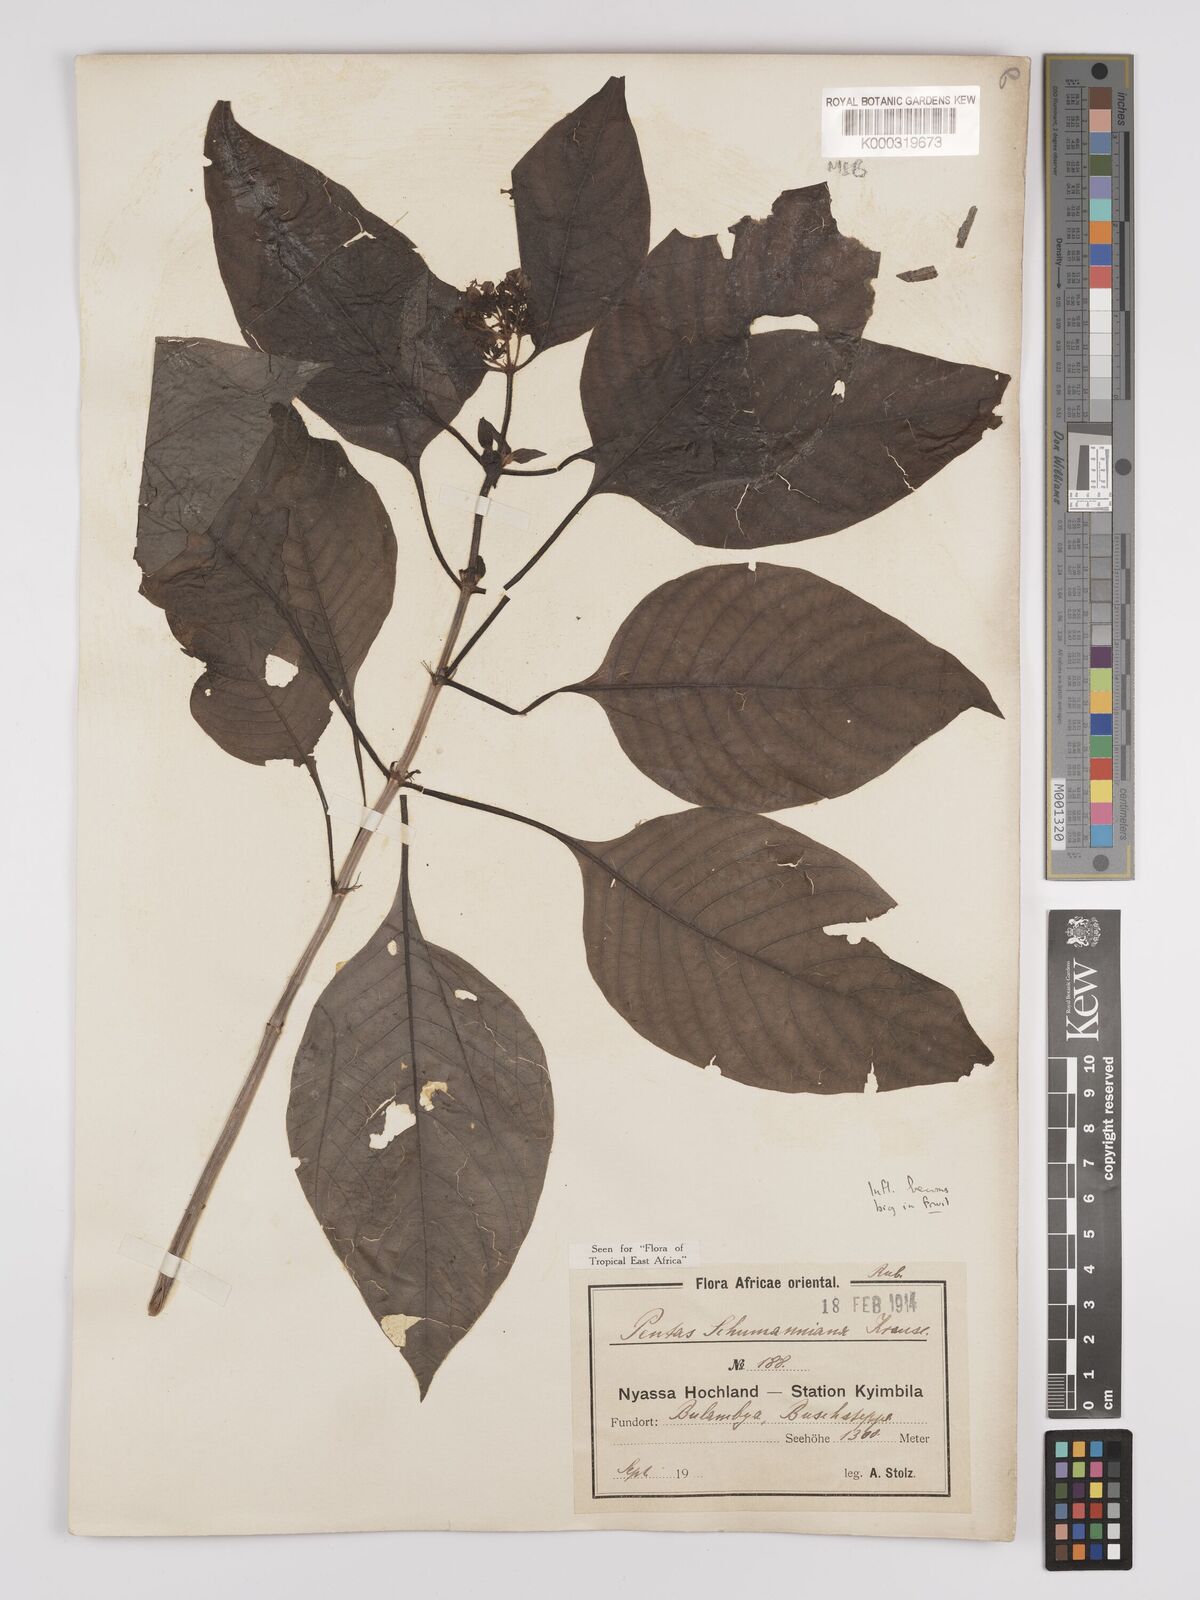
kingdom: Plantae
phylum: Tracheophyta
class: Magnoliopsida
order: Gentianales
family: Rubiaceae
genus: Phyllopentas
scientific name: Phyllopentas schumanniana
